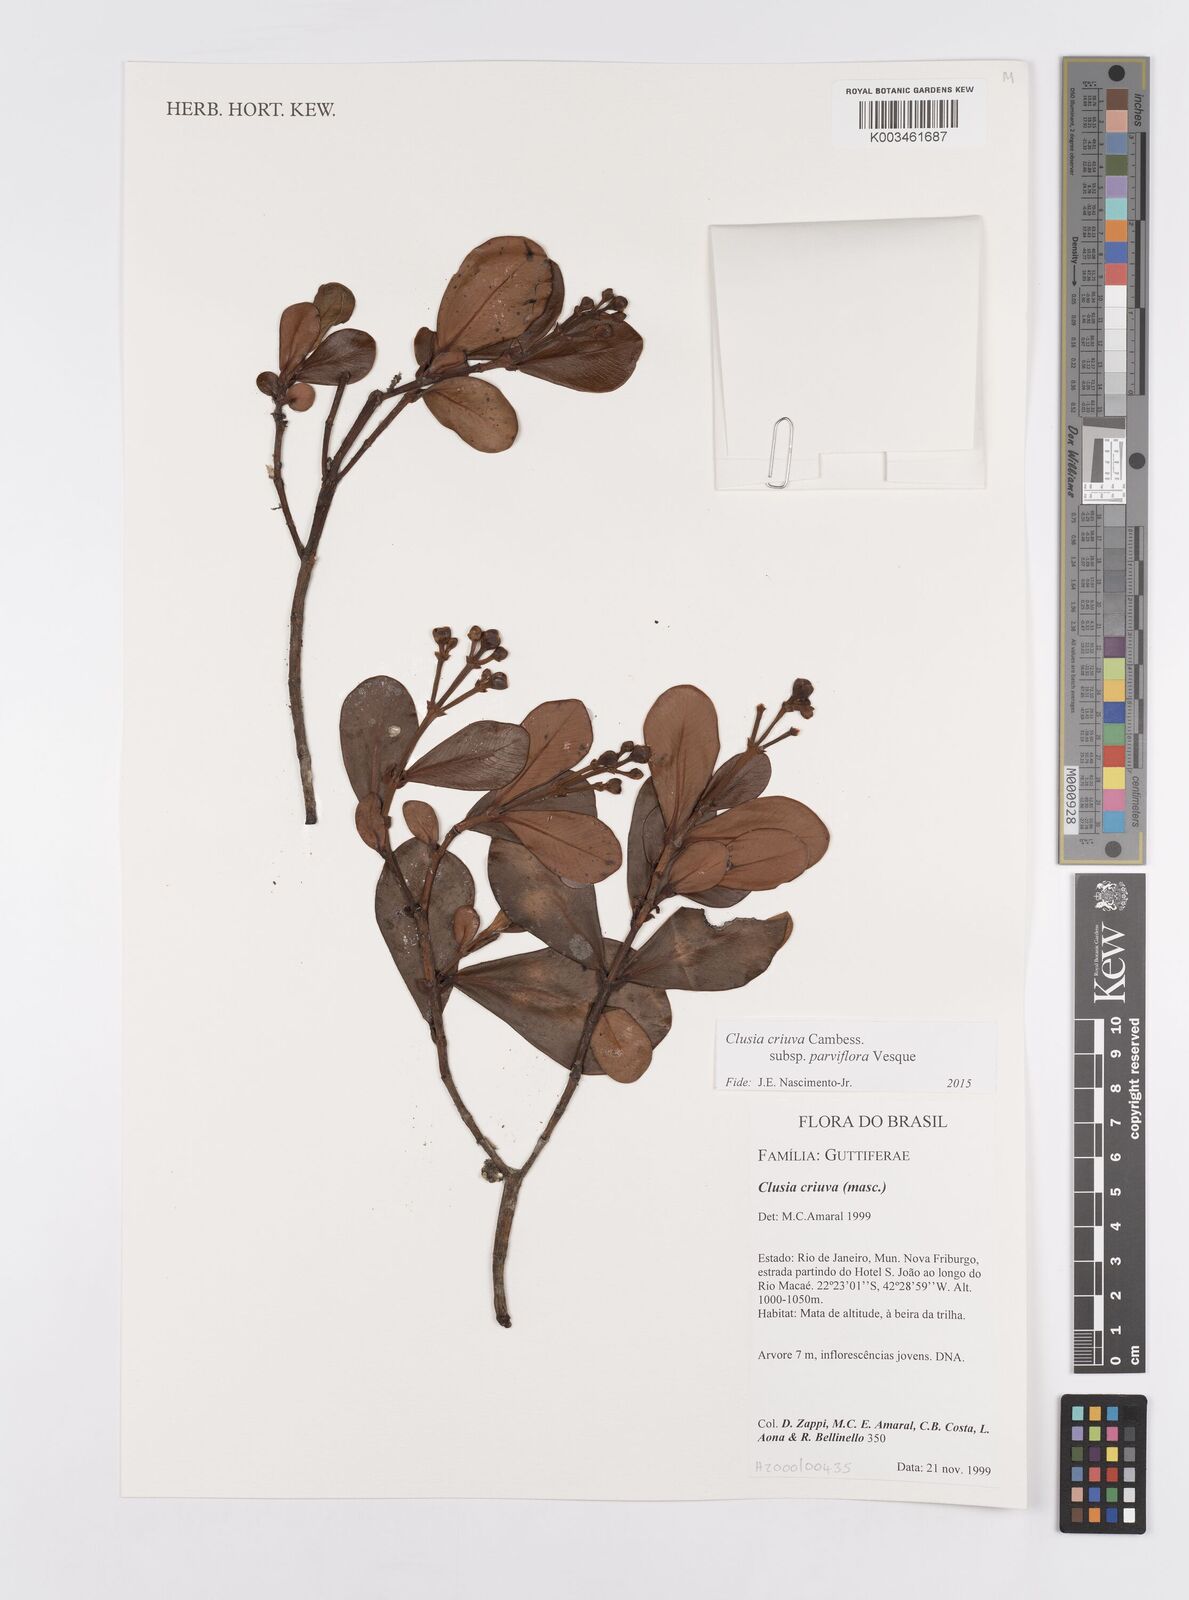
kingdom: Plantae
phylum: Tracheophyta
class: Magnoliopsida
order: Malpighiales
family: Clusiaceae
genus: Clusia
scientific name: Clusia criuva
